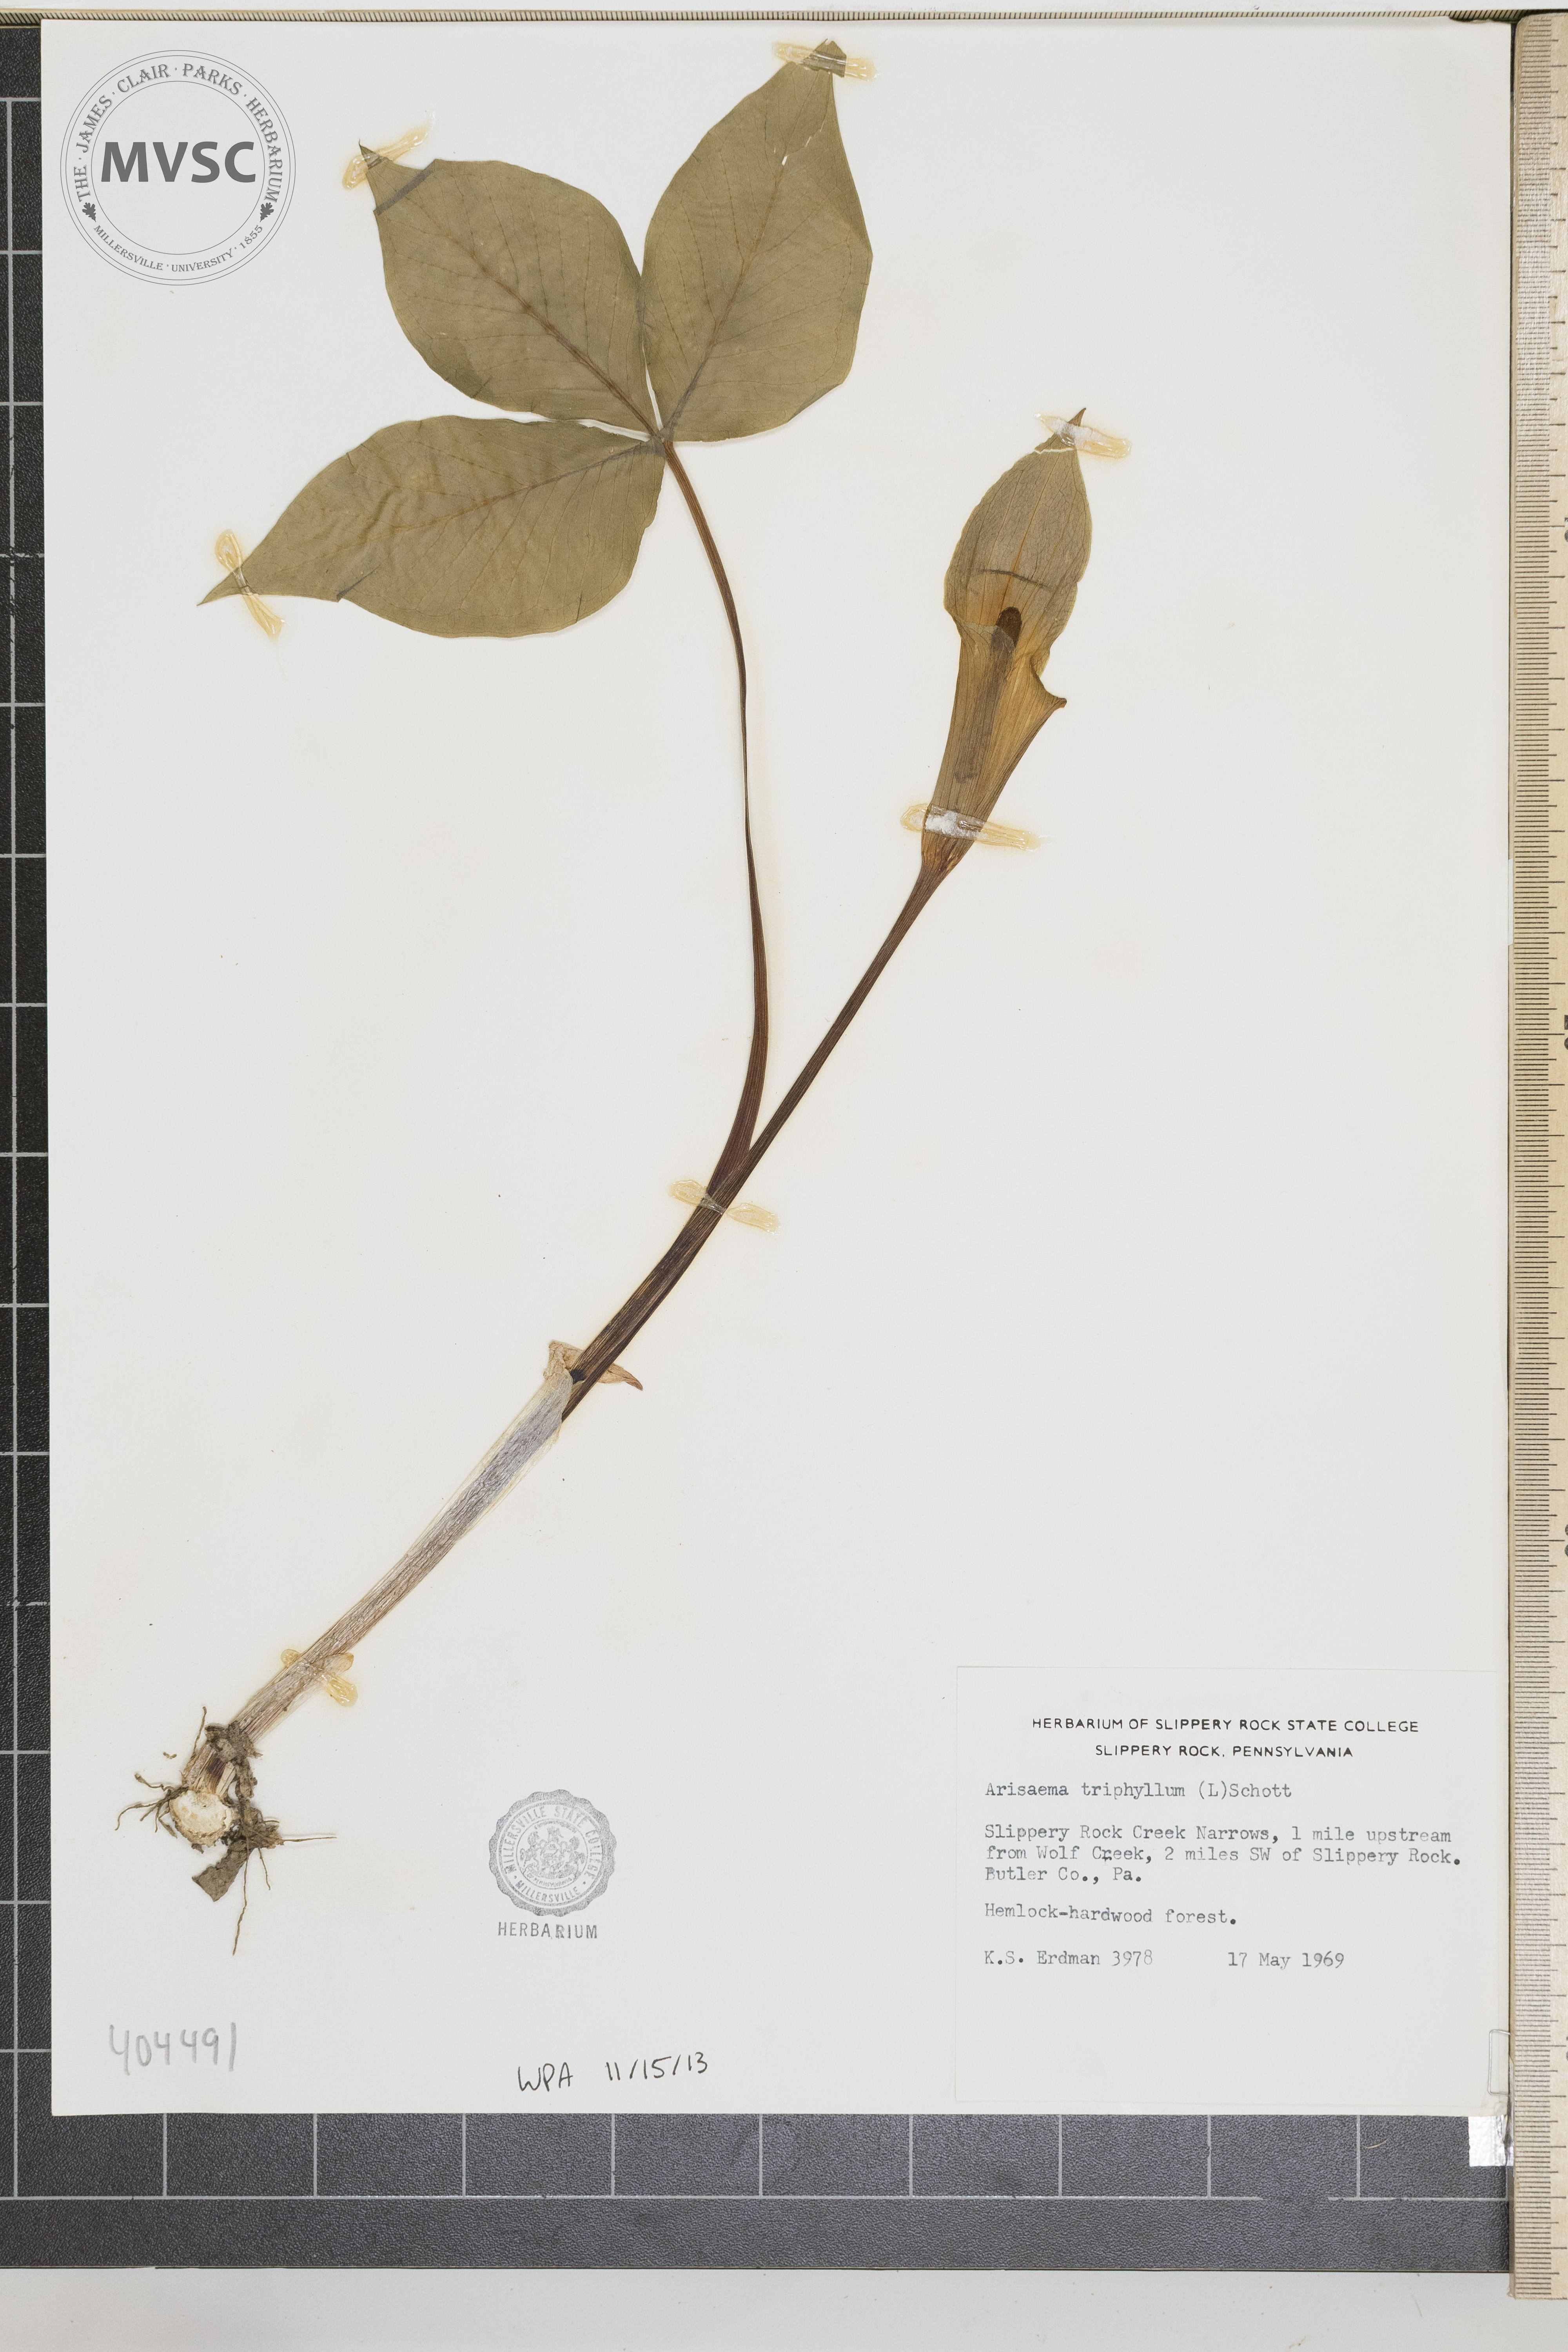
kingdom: Plantae
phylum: Tracheophyta
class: Liliopsida
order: Alismatales
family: Araceae
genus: Arisaema
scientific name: Arisaema triphyllum
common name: Jack-in-the-pulpit
